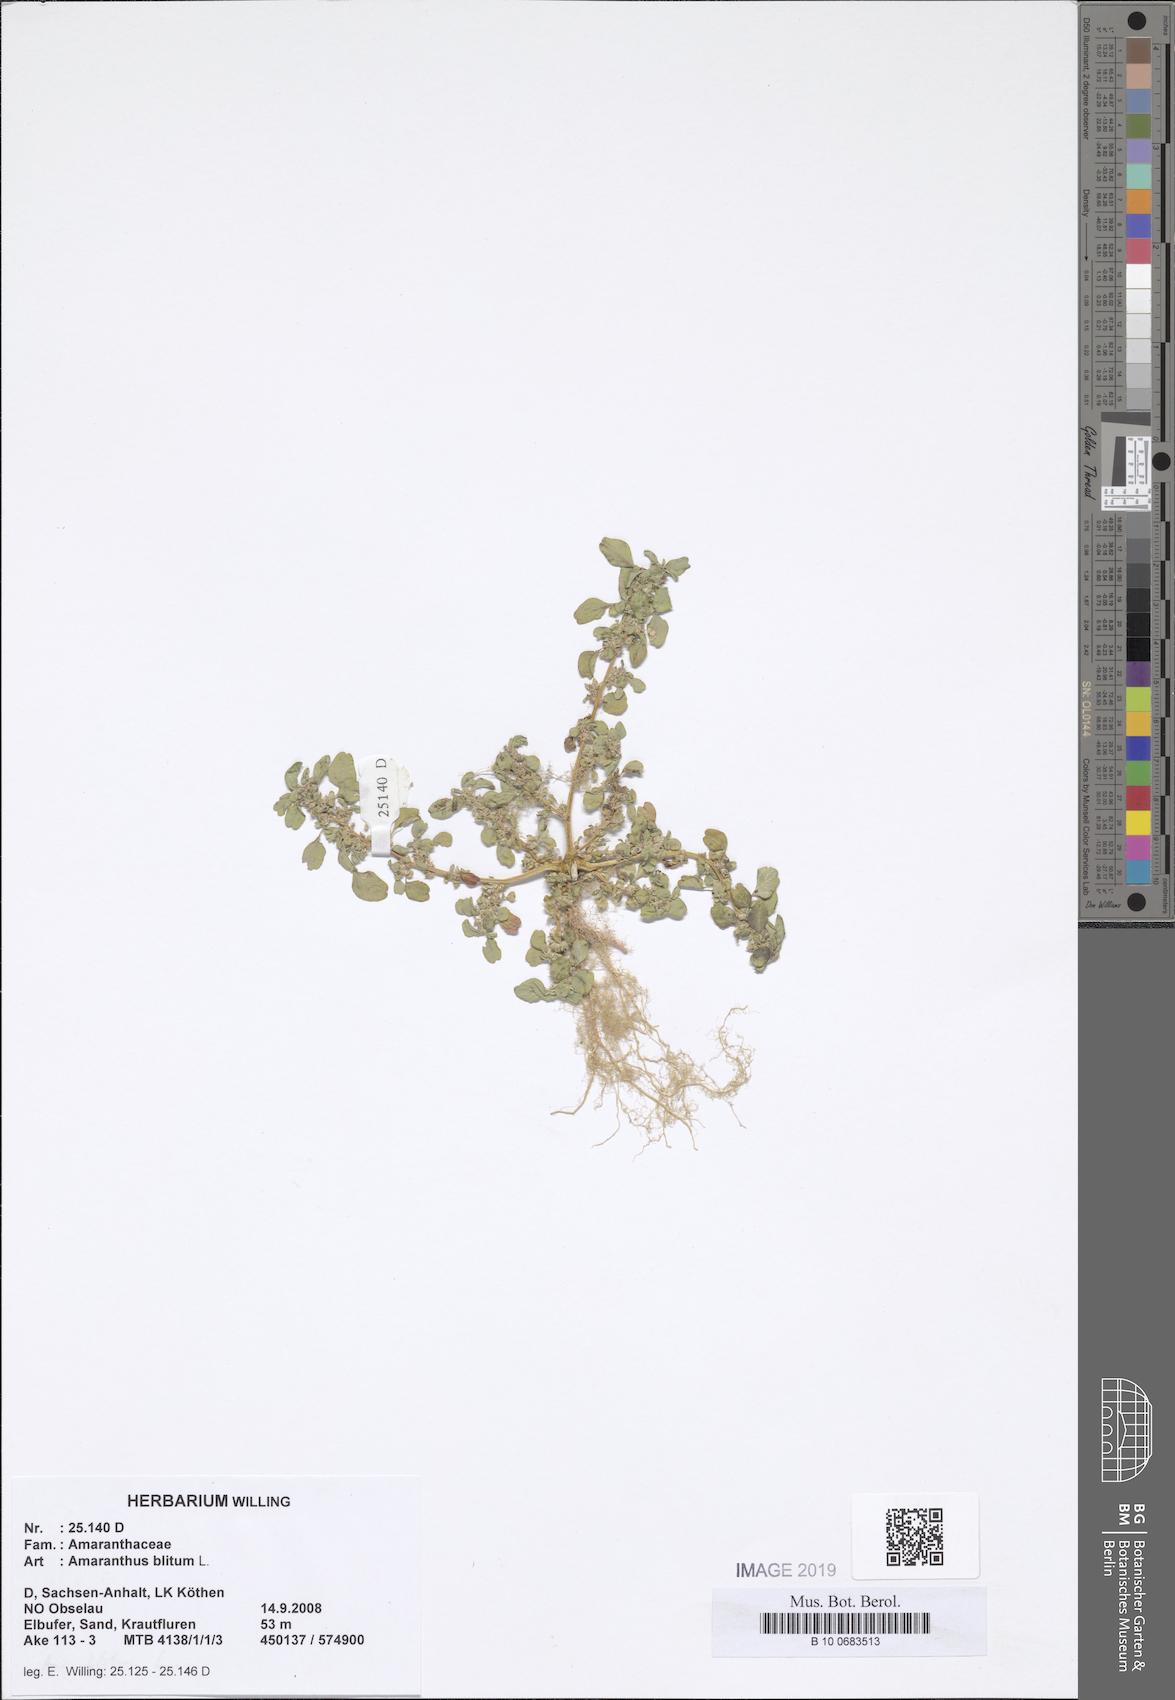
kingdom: Plantae
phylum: Tracheophyta
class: Magnoliopsida
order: Caryophyllales
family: Amaranthaceae
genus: Amaranthus
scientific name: Amaranthus blitum
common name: Purple amaranth
